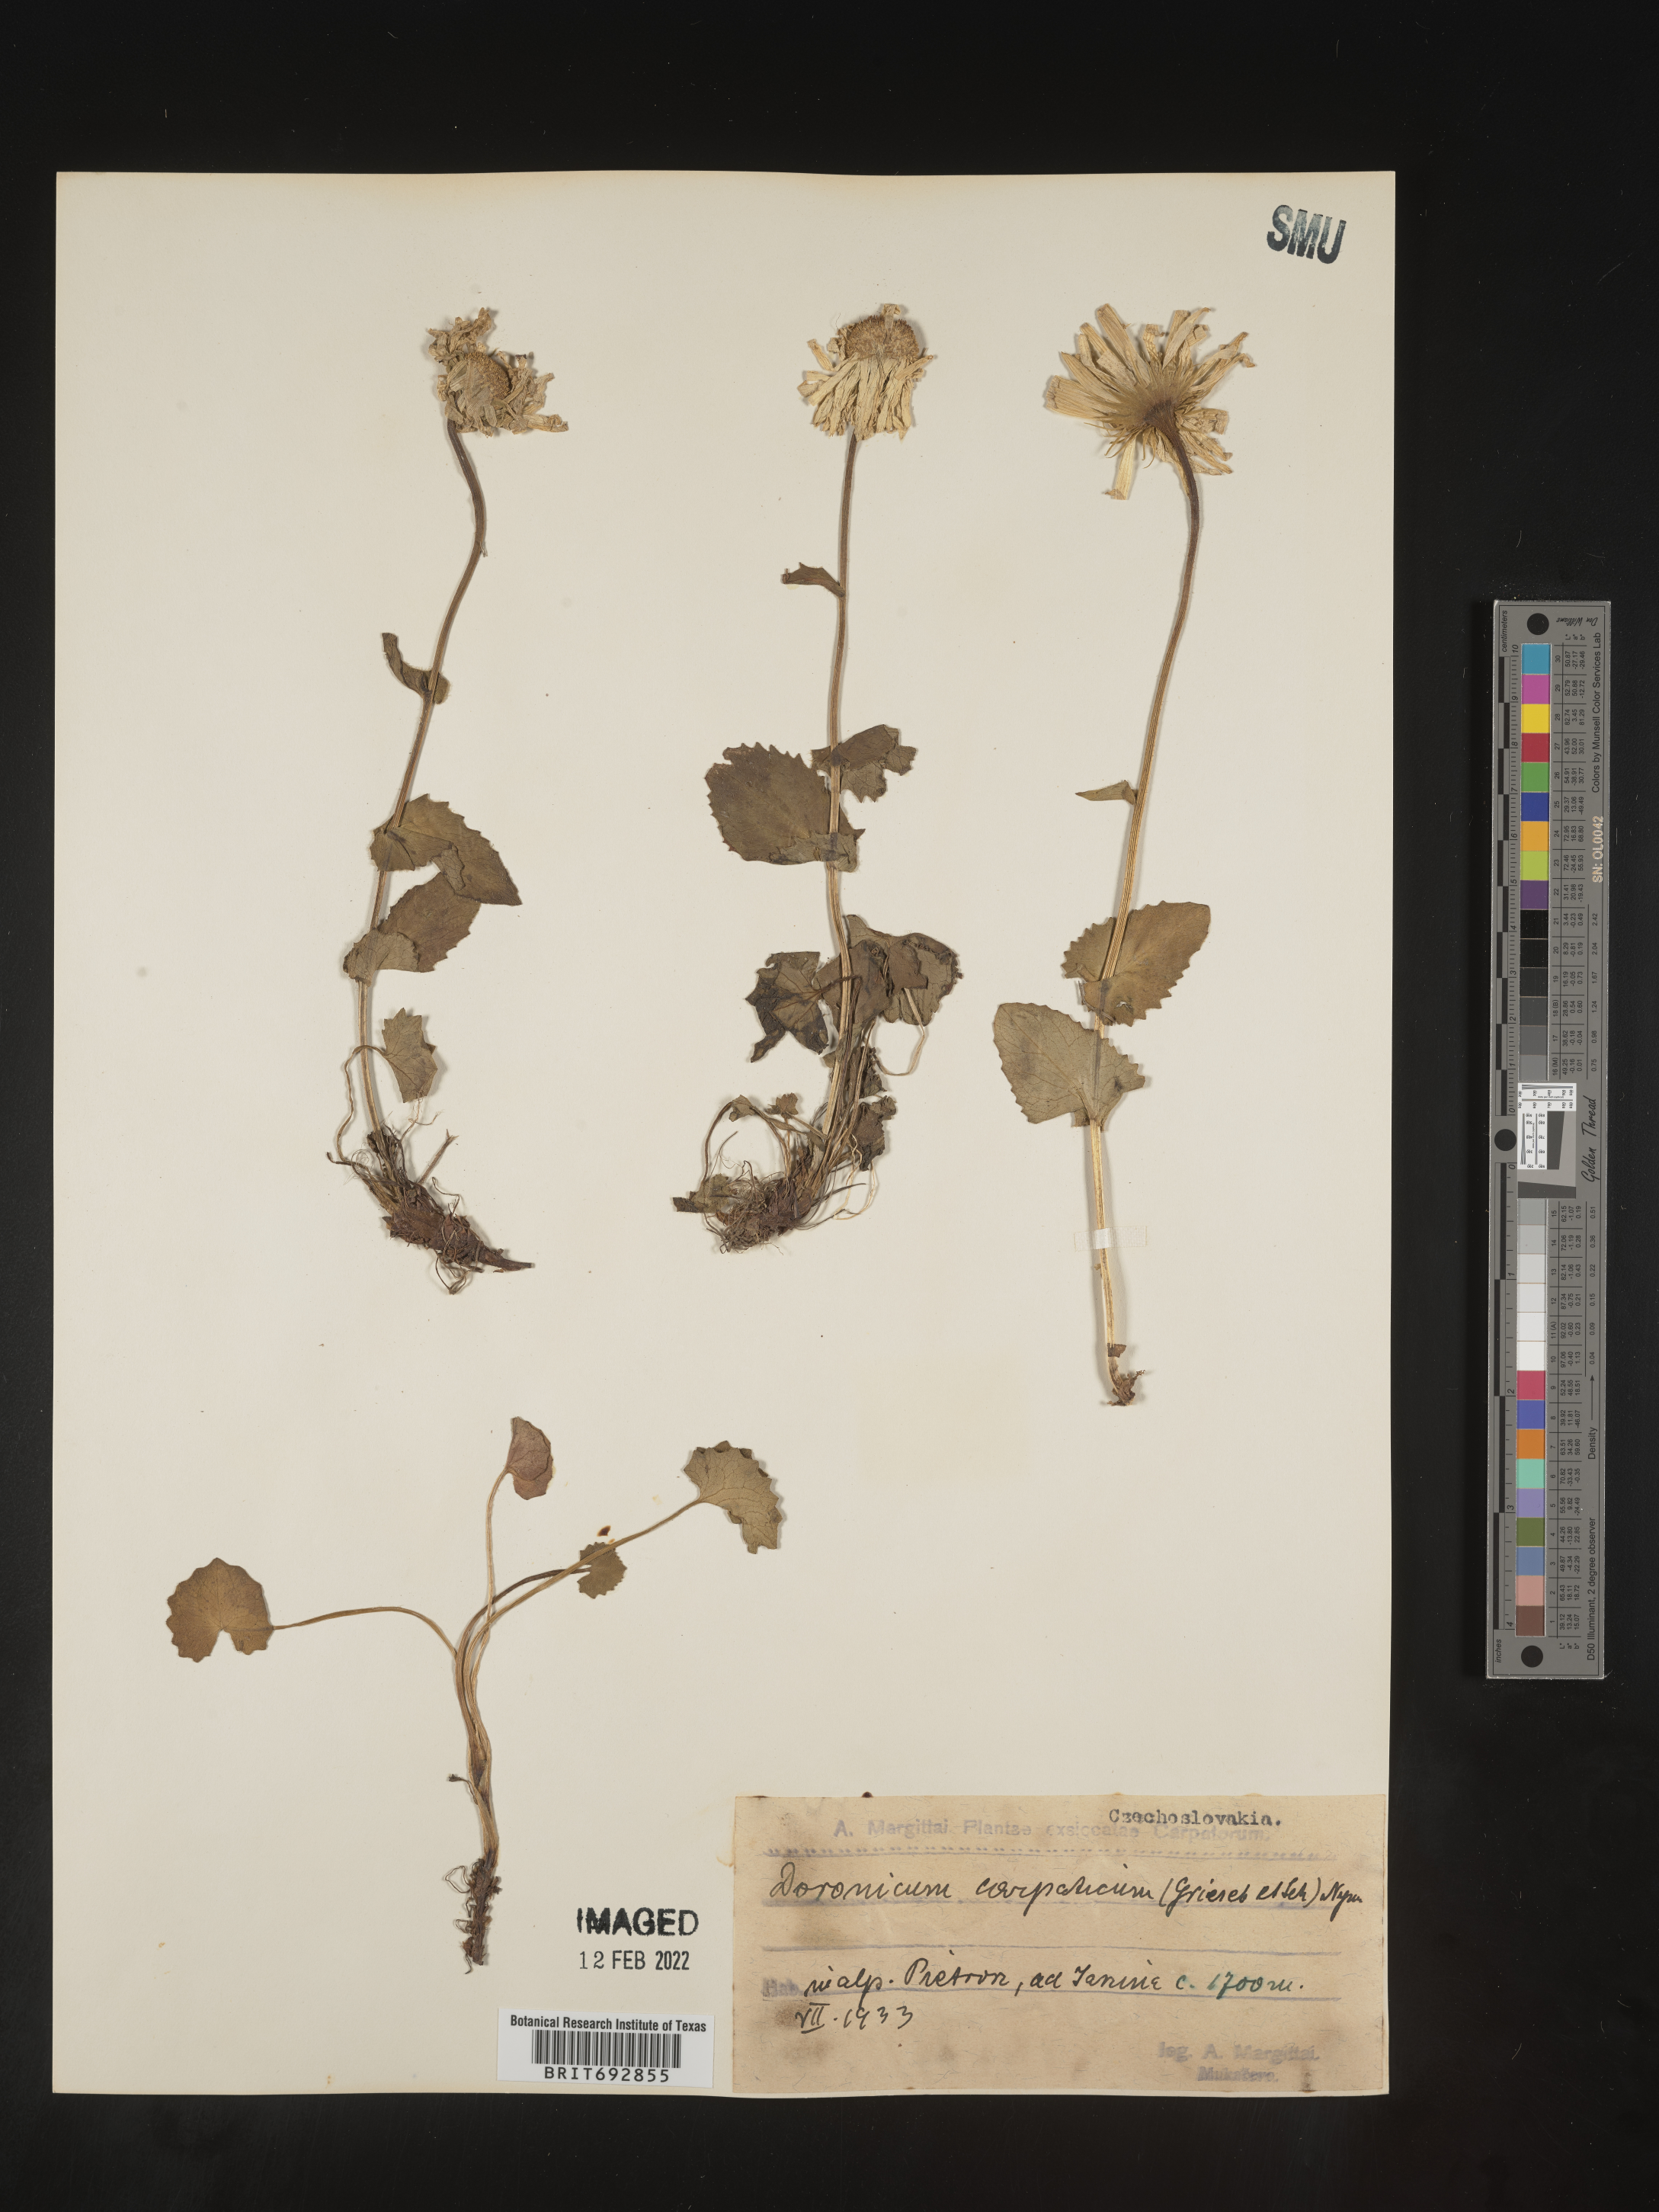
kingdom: Plantae
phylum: Tracheophyta
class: Magnoliopsida
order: Asterales
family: Asteraceae
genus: Doronicum
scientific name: Doronicum
